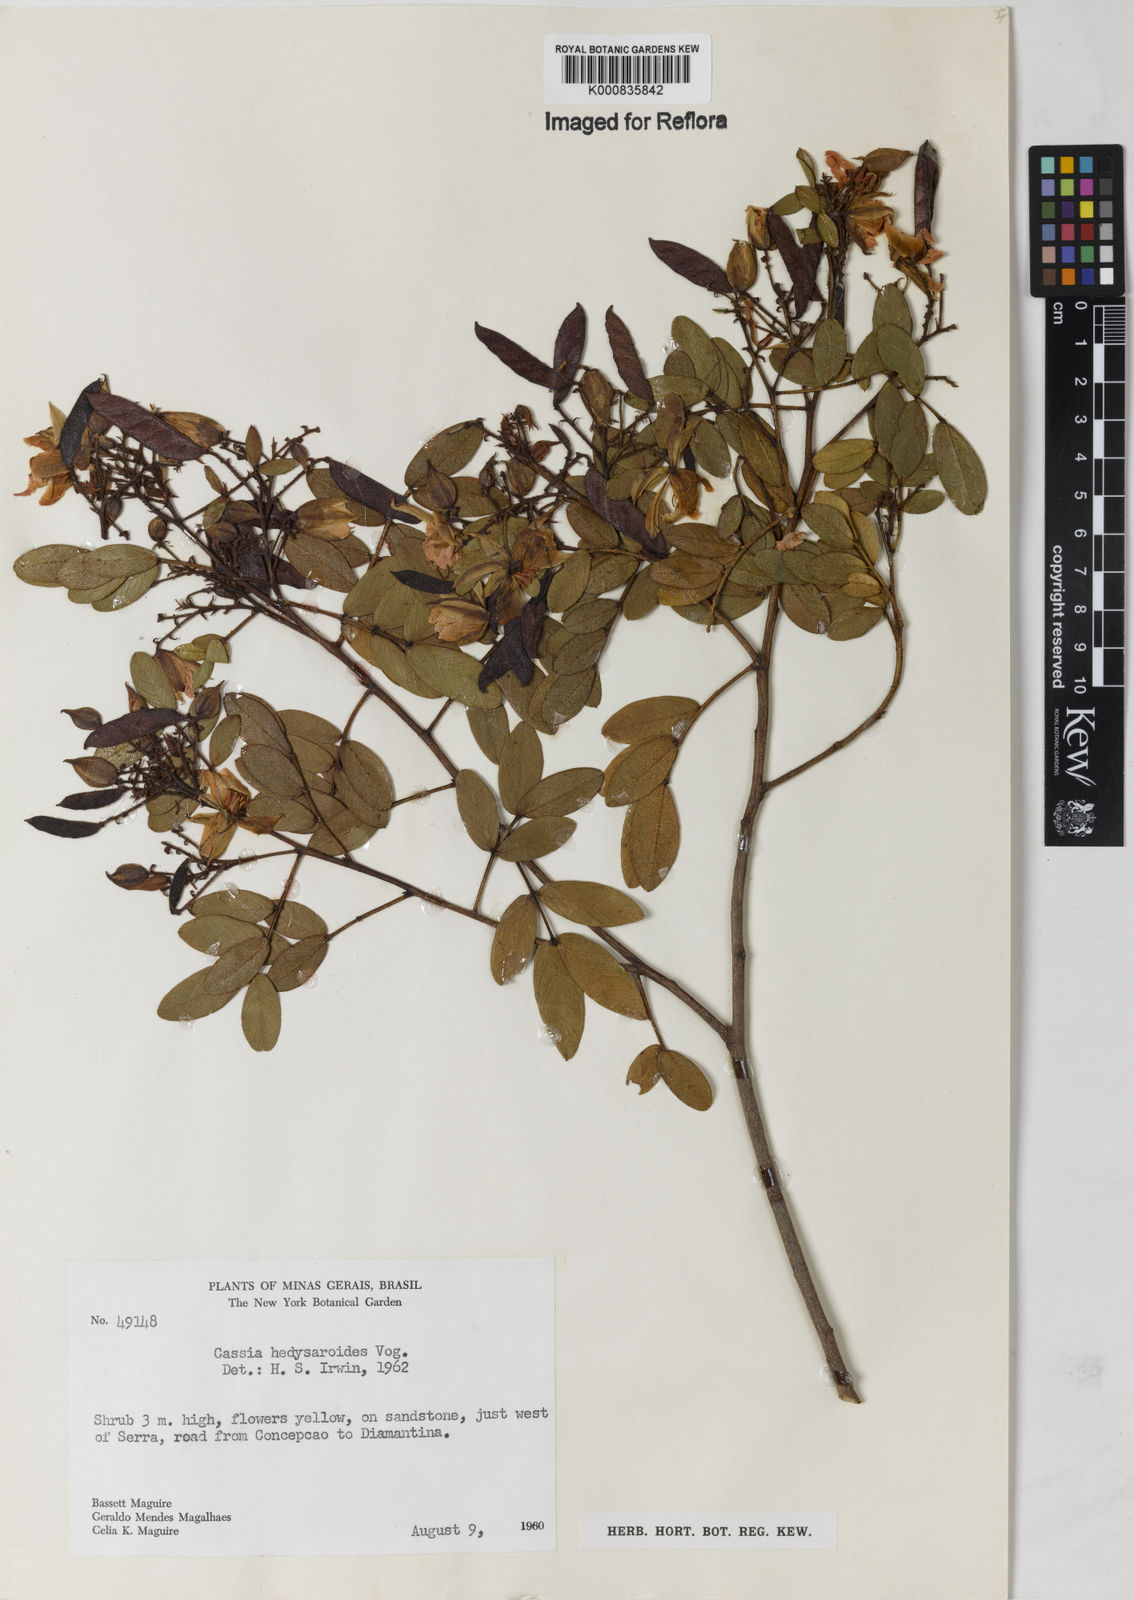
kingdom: Plantae
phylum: Tracheophyta
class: Magnoliopsida
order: Fabales
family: Fabaceae
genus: Chamaecrista
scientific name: Chamaecrista hedysaroides
